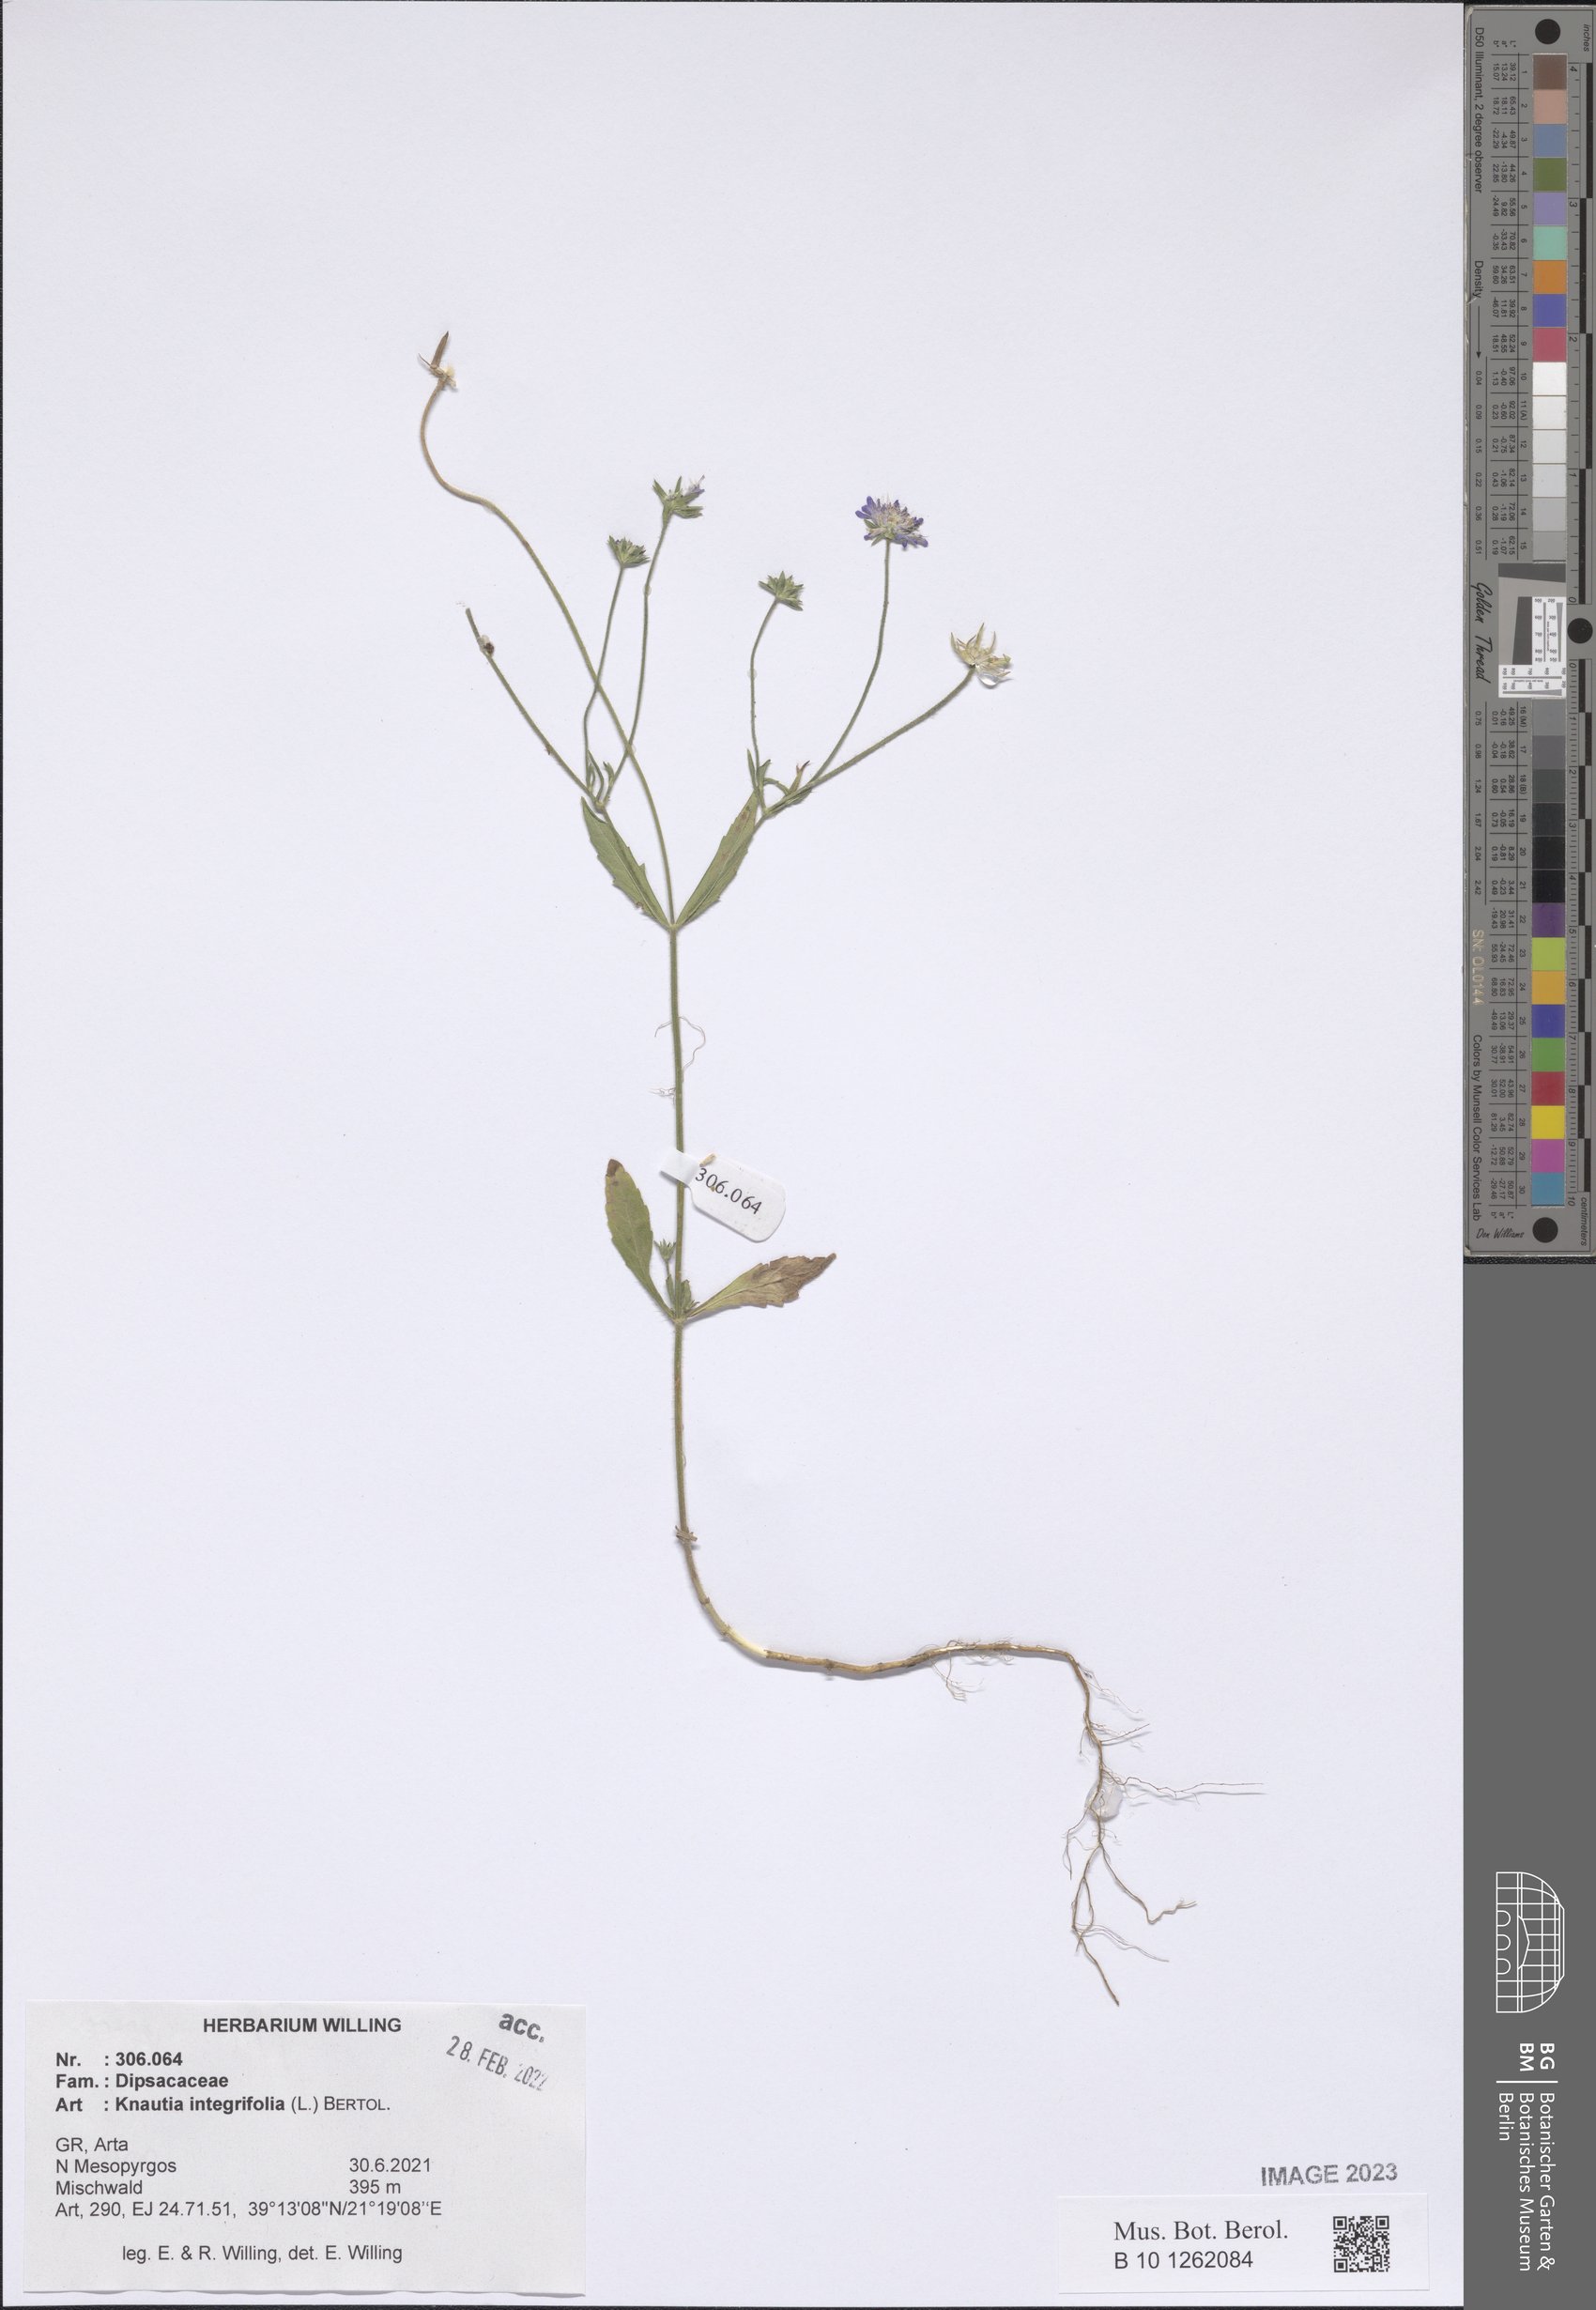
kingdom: Plantae
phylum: Tracheophyta
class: Magnoliopsida
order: Dipsacales
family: Caprifoliaceae
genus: Knautia
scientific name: Knautia integrifolia
